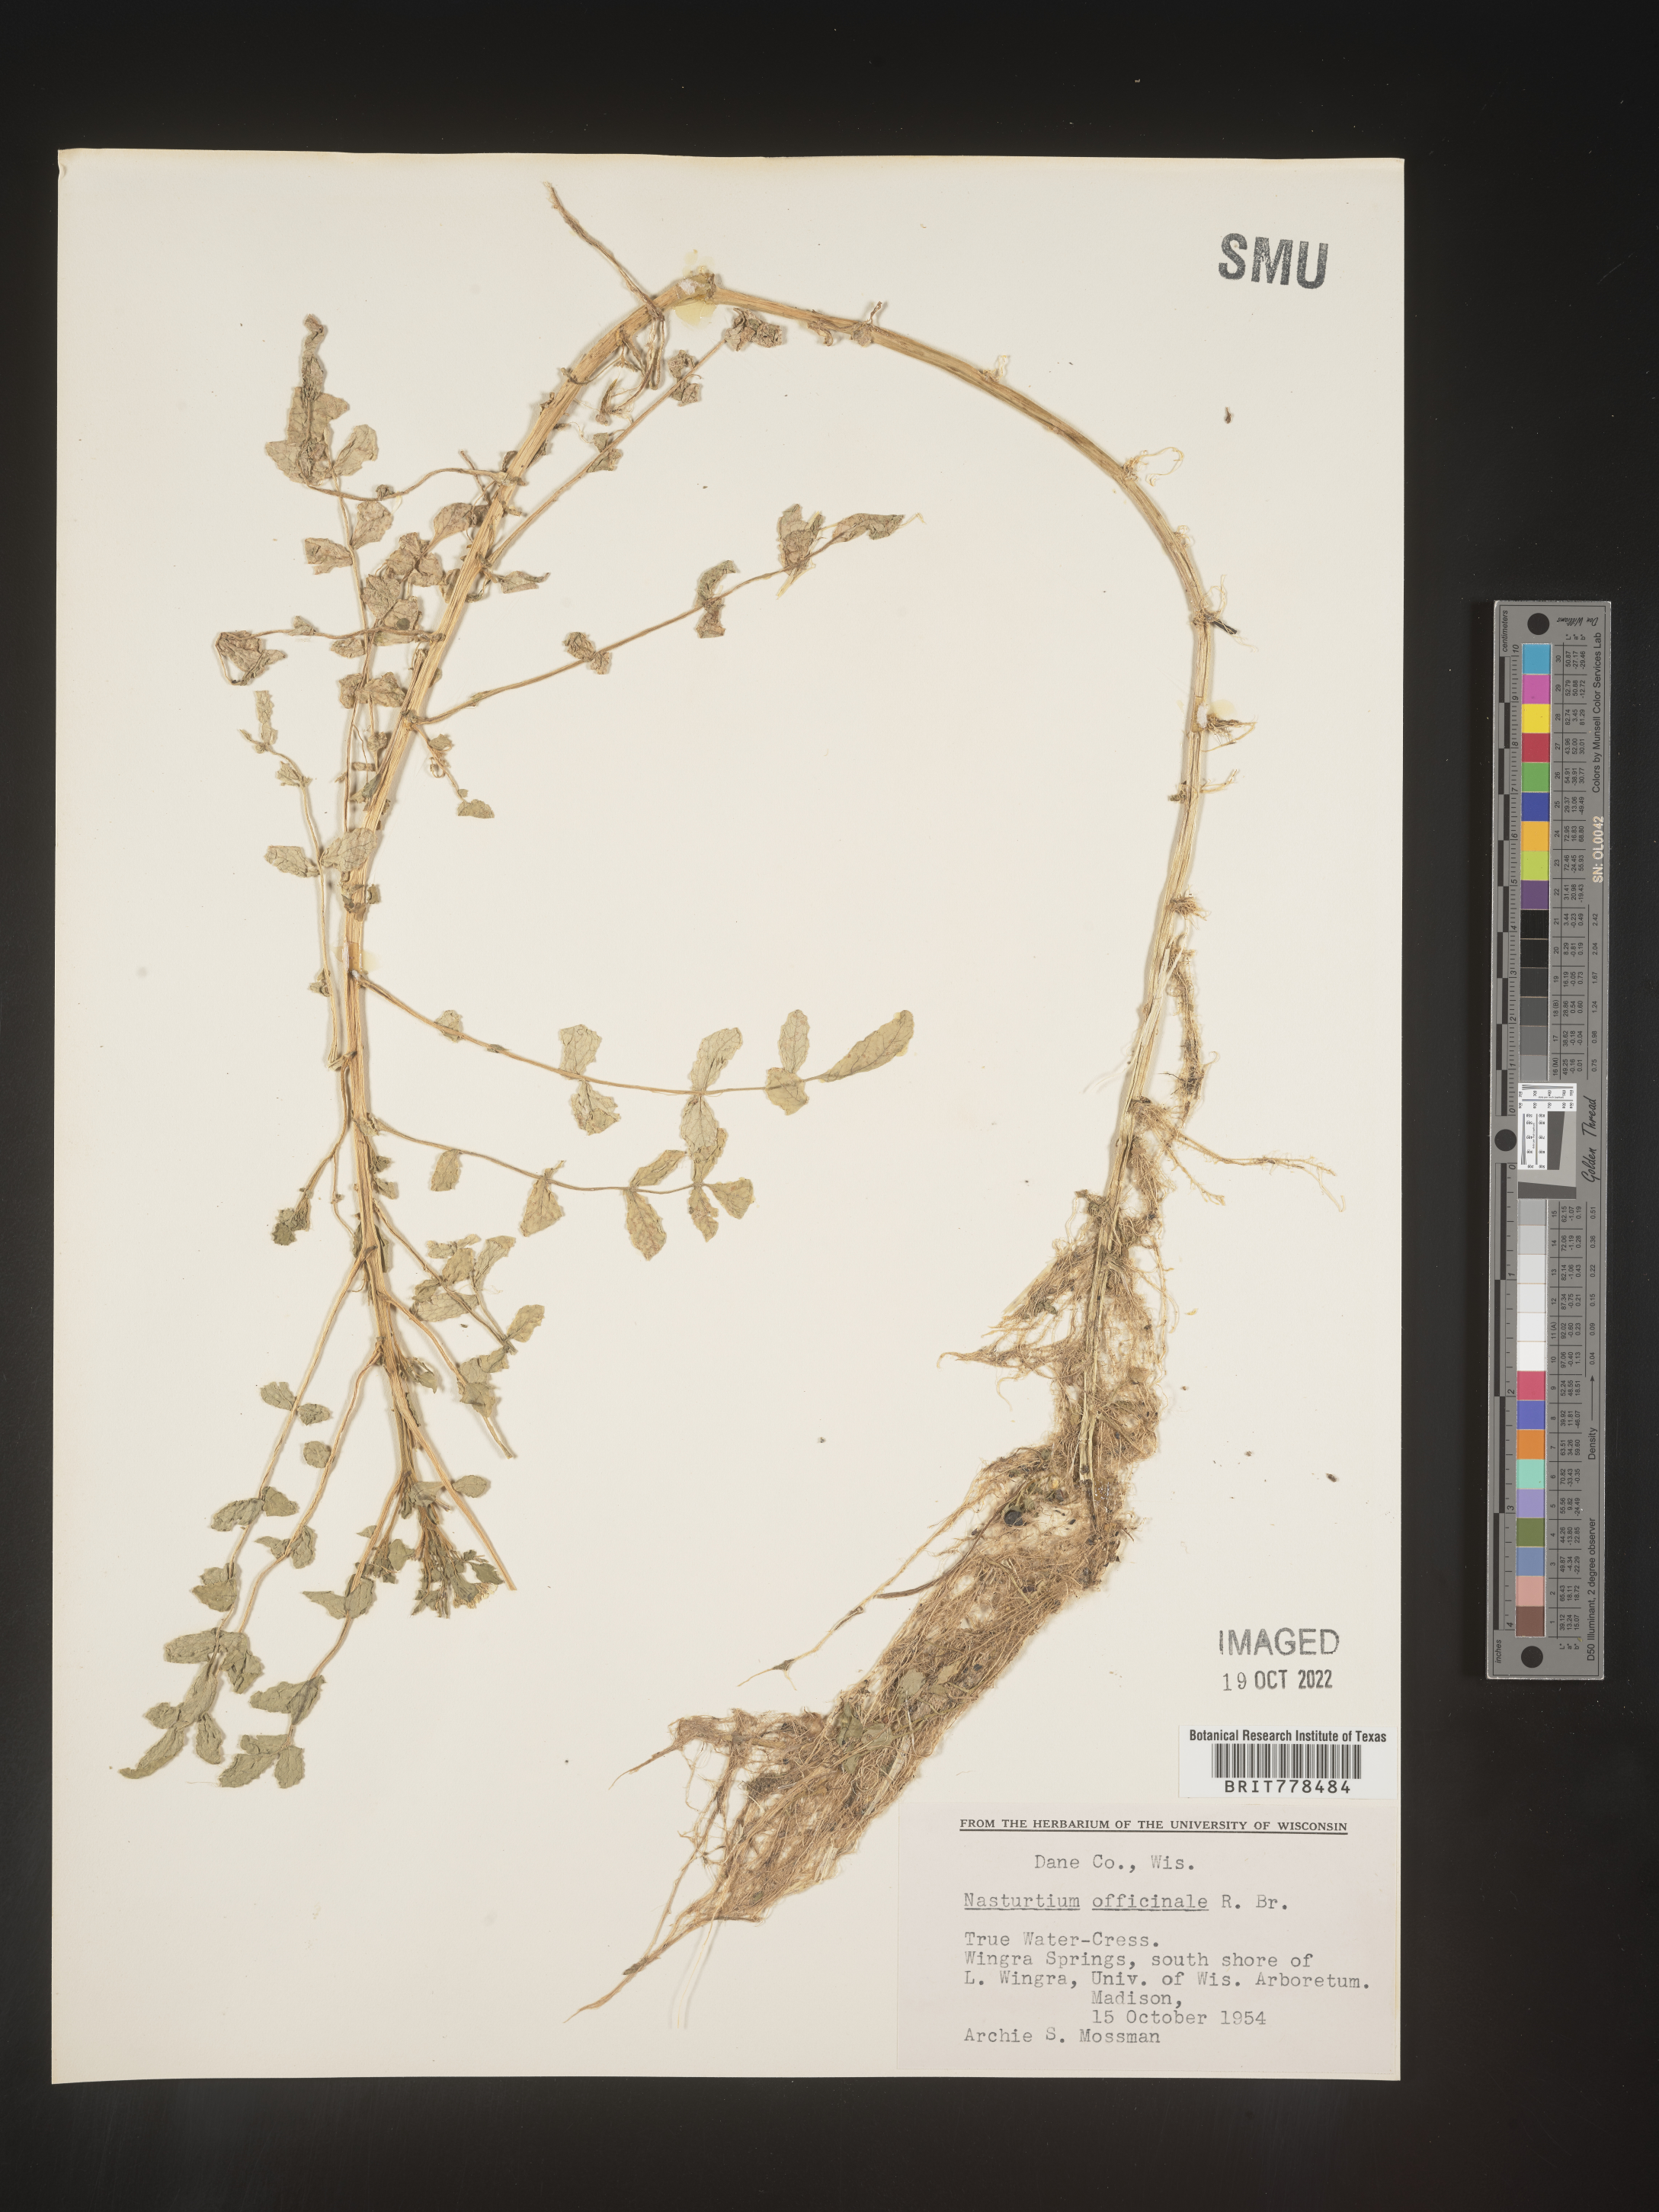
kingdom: Plantae
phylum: Tracheophyta
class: Magnoliopsida
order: Brassicales
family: Brassicaceae
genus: Nasturtium
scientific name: Nasturtium officinale
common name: Watercress
